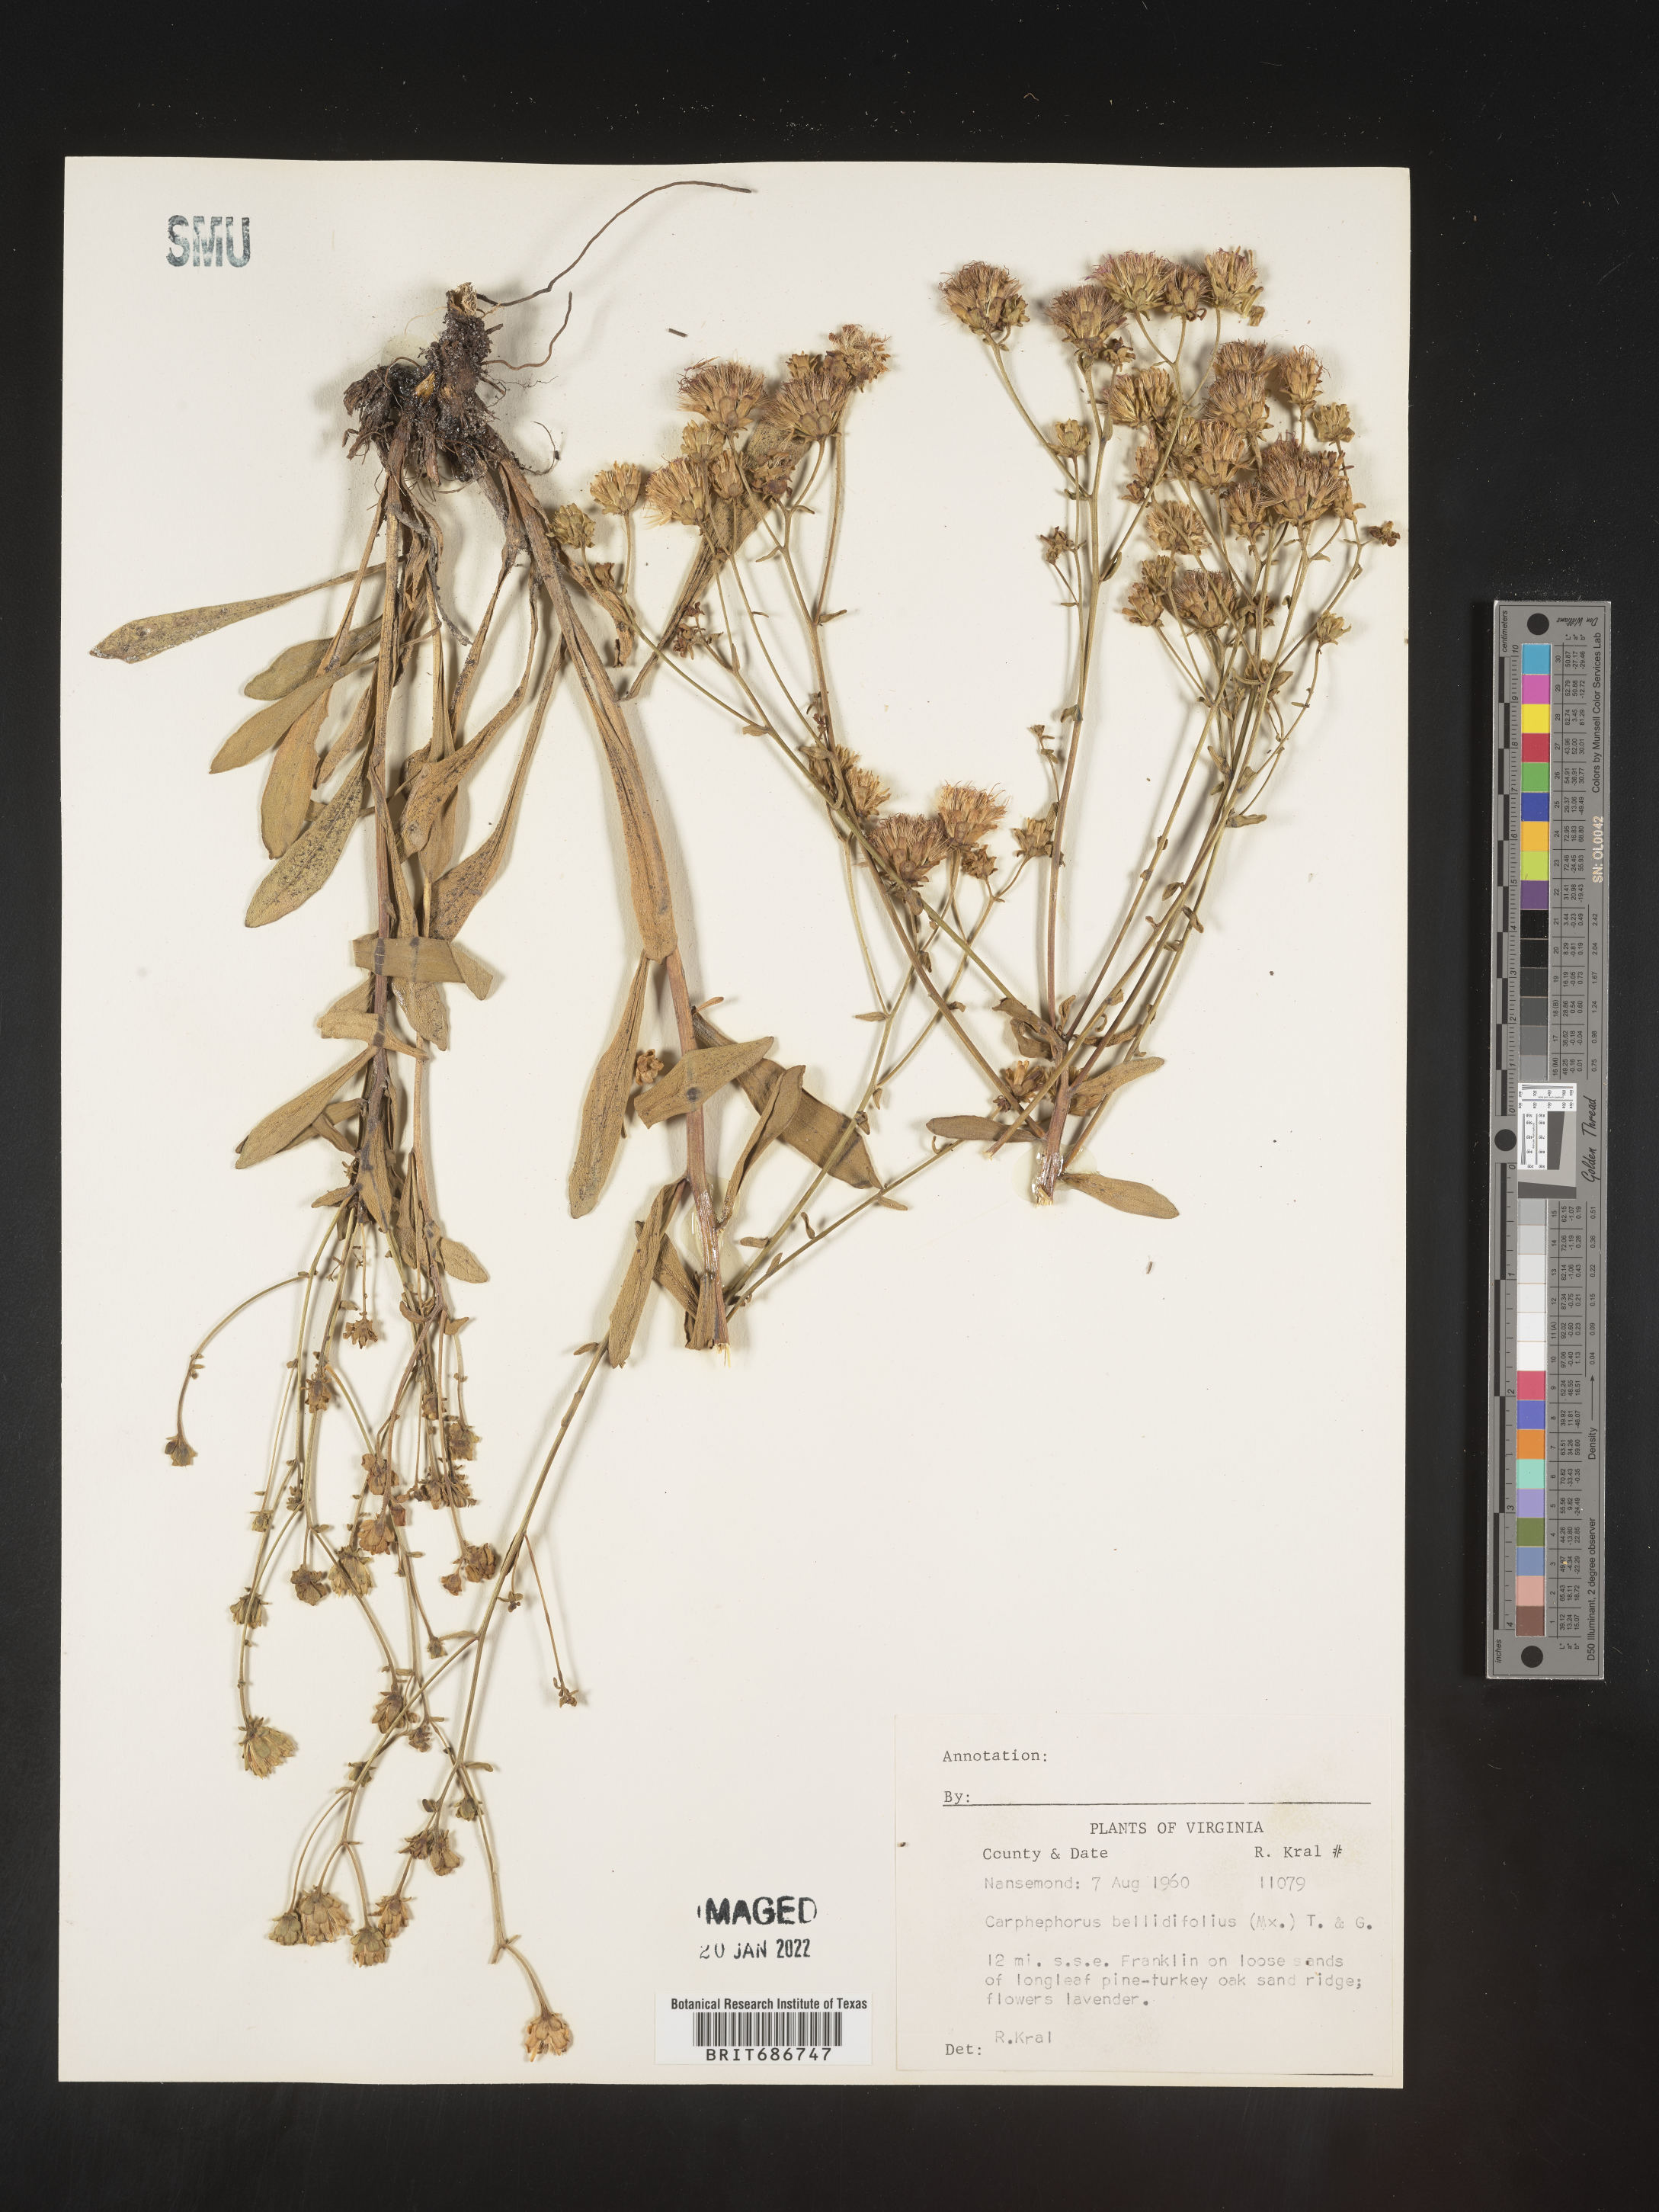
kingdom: Plantae
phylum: Tracheophyta
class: Magnoliopsida
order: Asterales
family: Asteraceae
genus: Carphephorus
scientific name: Carphephorus bellidifolius
